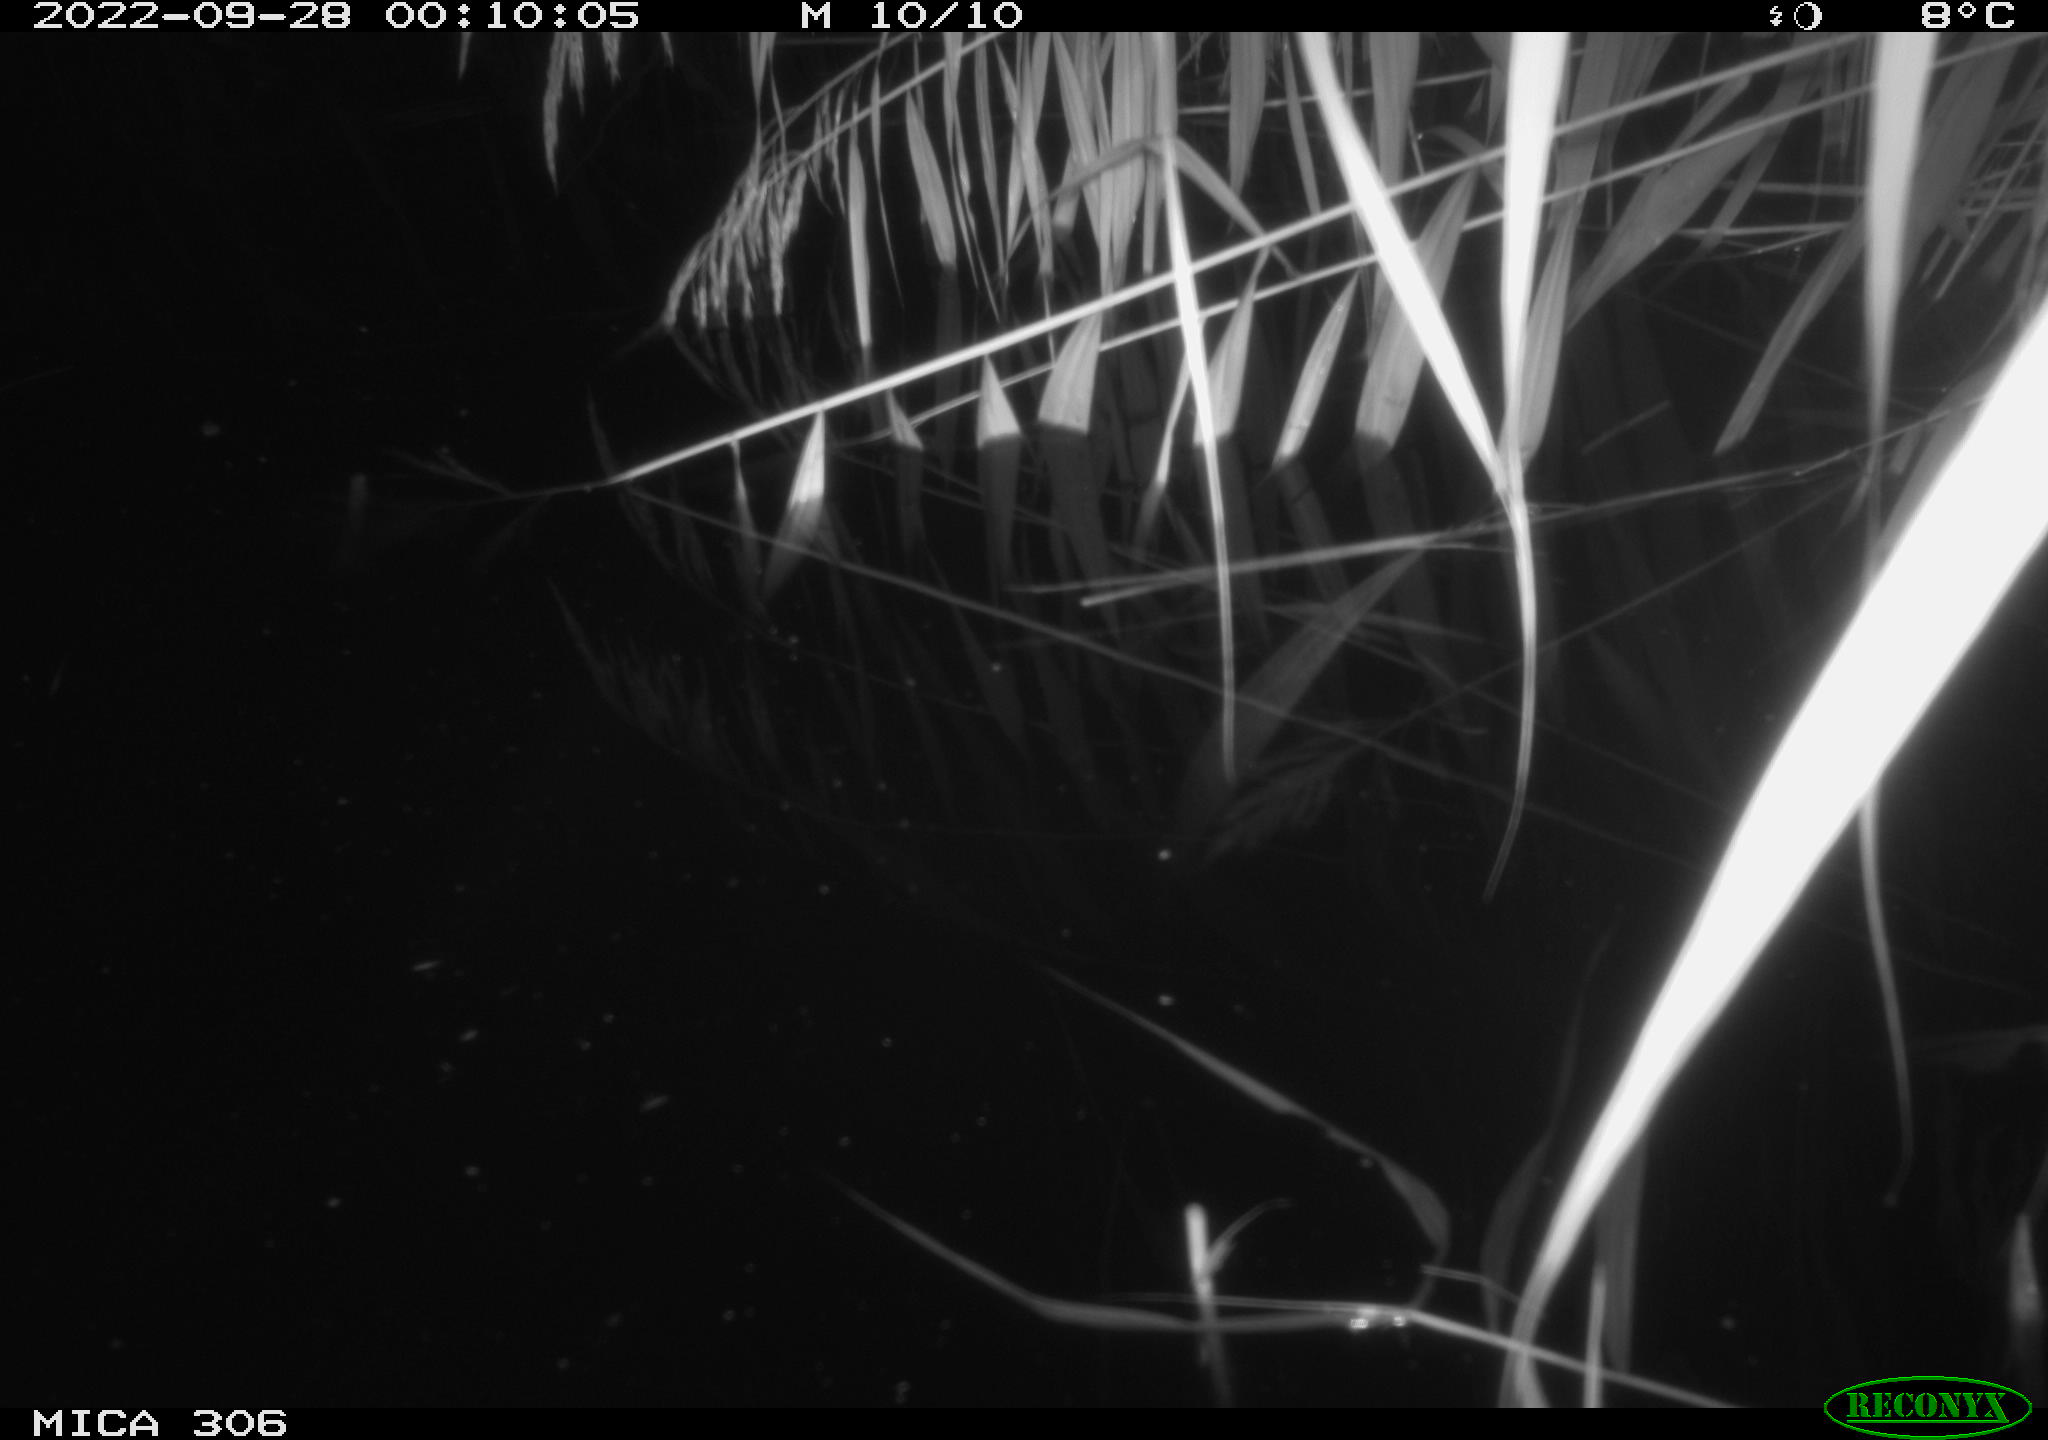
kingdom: Animalia
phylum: Chordata
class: Mammalia
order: Rodentia
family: Muridae
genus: Rattus
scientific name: Rattus norvegicus
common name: Brown rat
